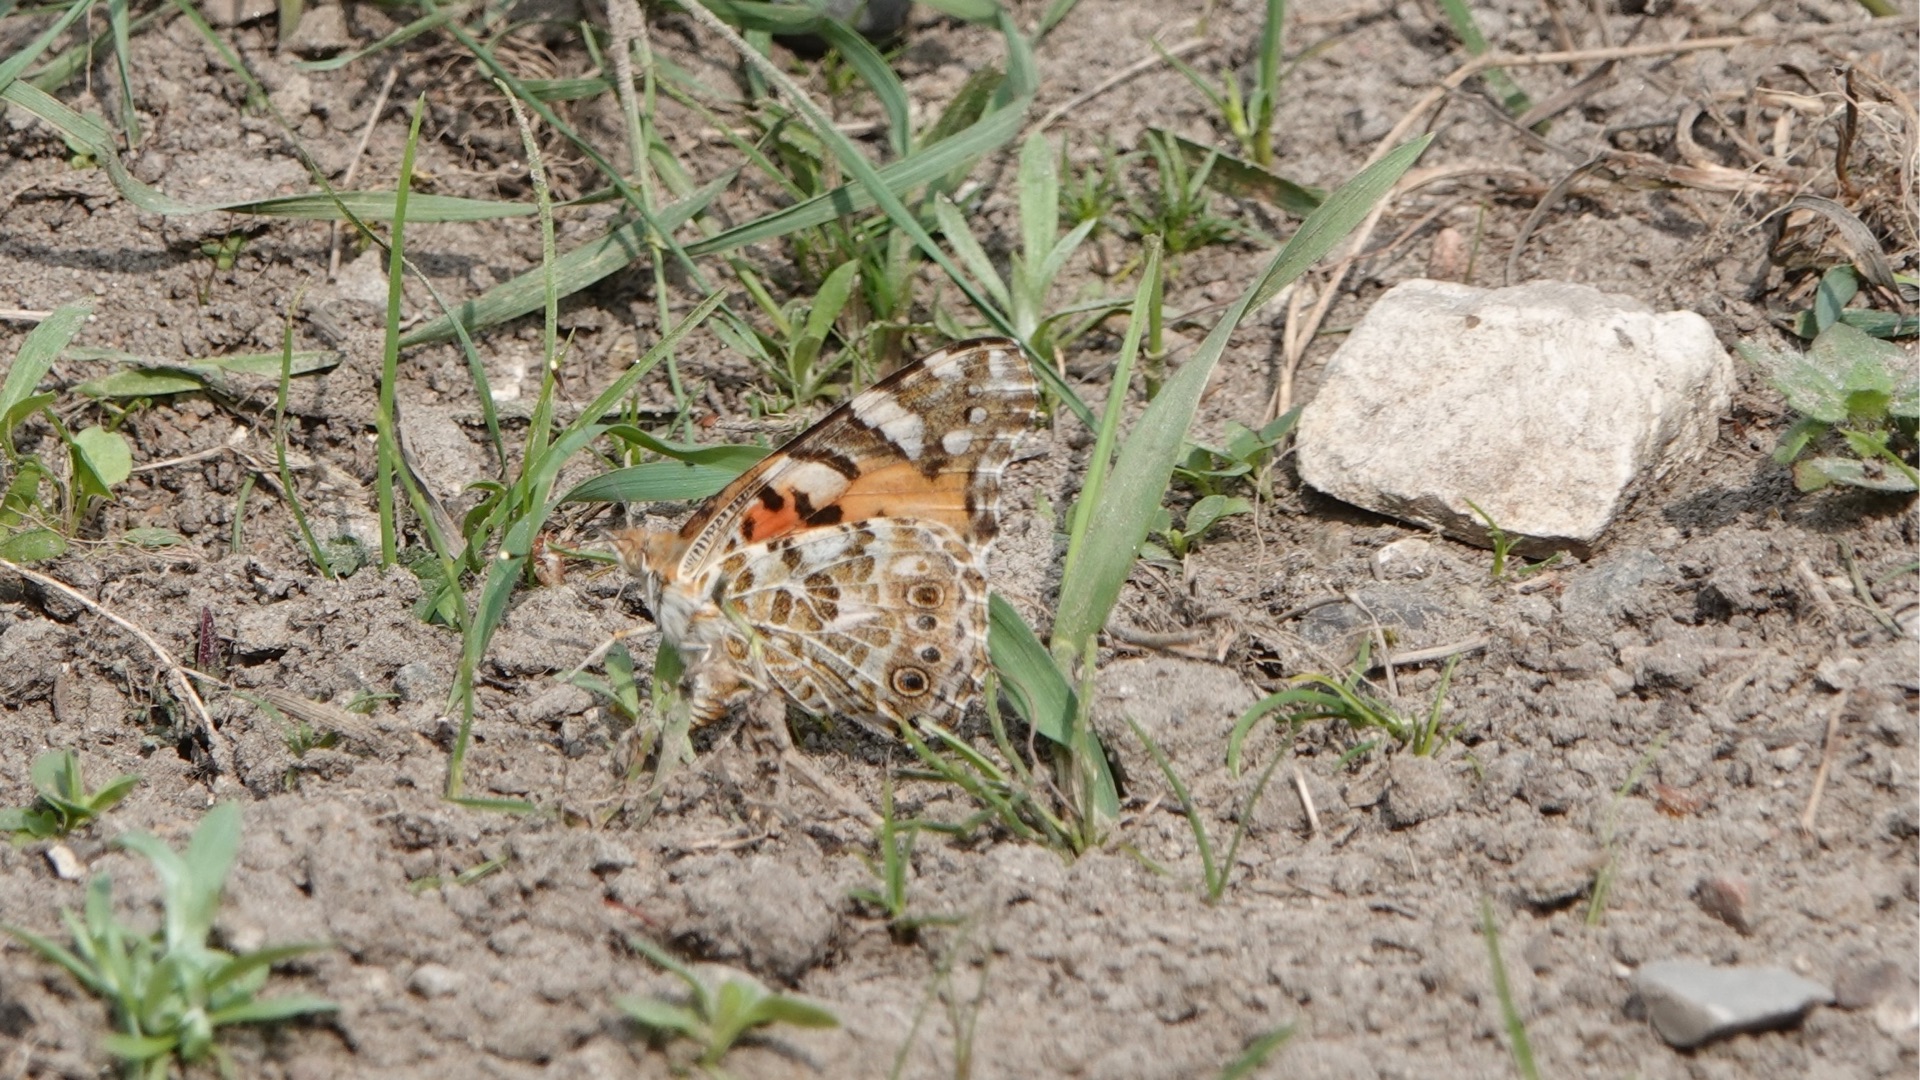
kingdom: Animalia
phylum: Arthropoda
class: Insecta
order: Lepidoptera
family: Nymphalidae
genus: Vanessa
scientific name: Vanessa cardui
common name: Tidselsommerfugl
